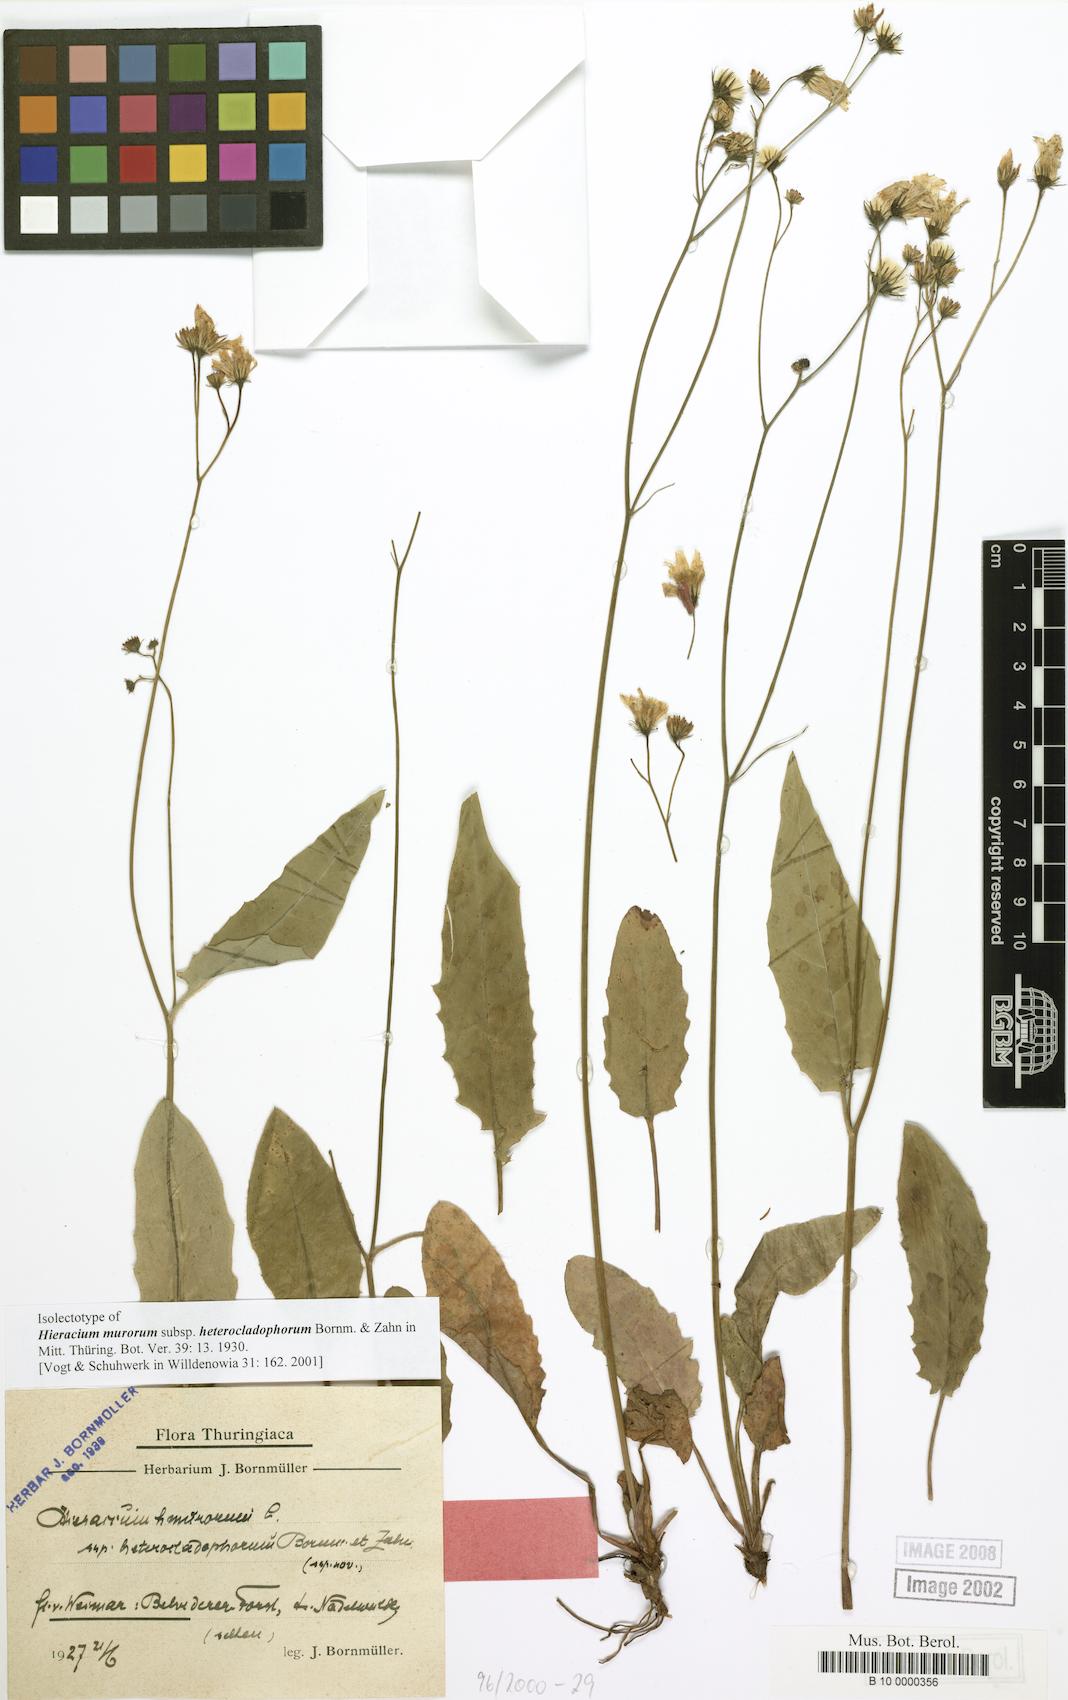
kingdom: Plantae
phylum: Tracheophyta
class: Magnoliopsida
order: Asterales
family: Asteraceae
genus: Hieracium
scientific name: Hieracium murorum
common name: Wall hawkweed
